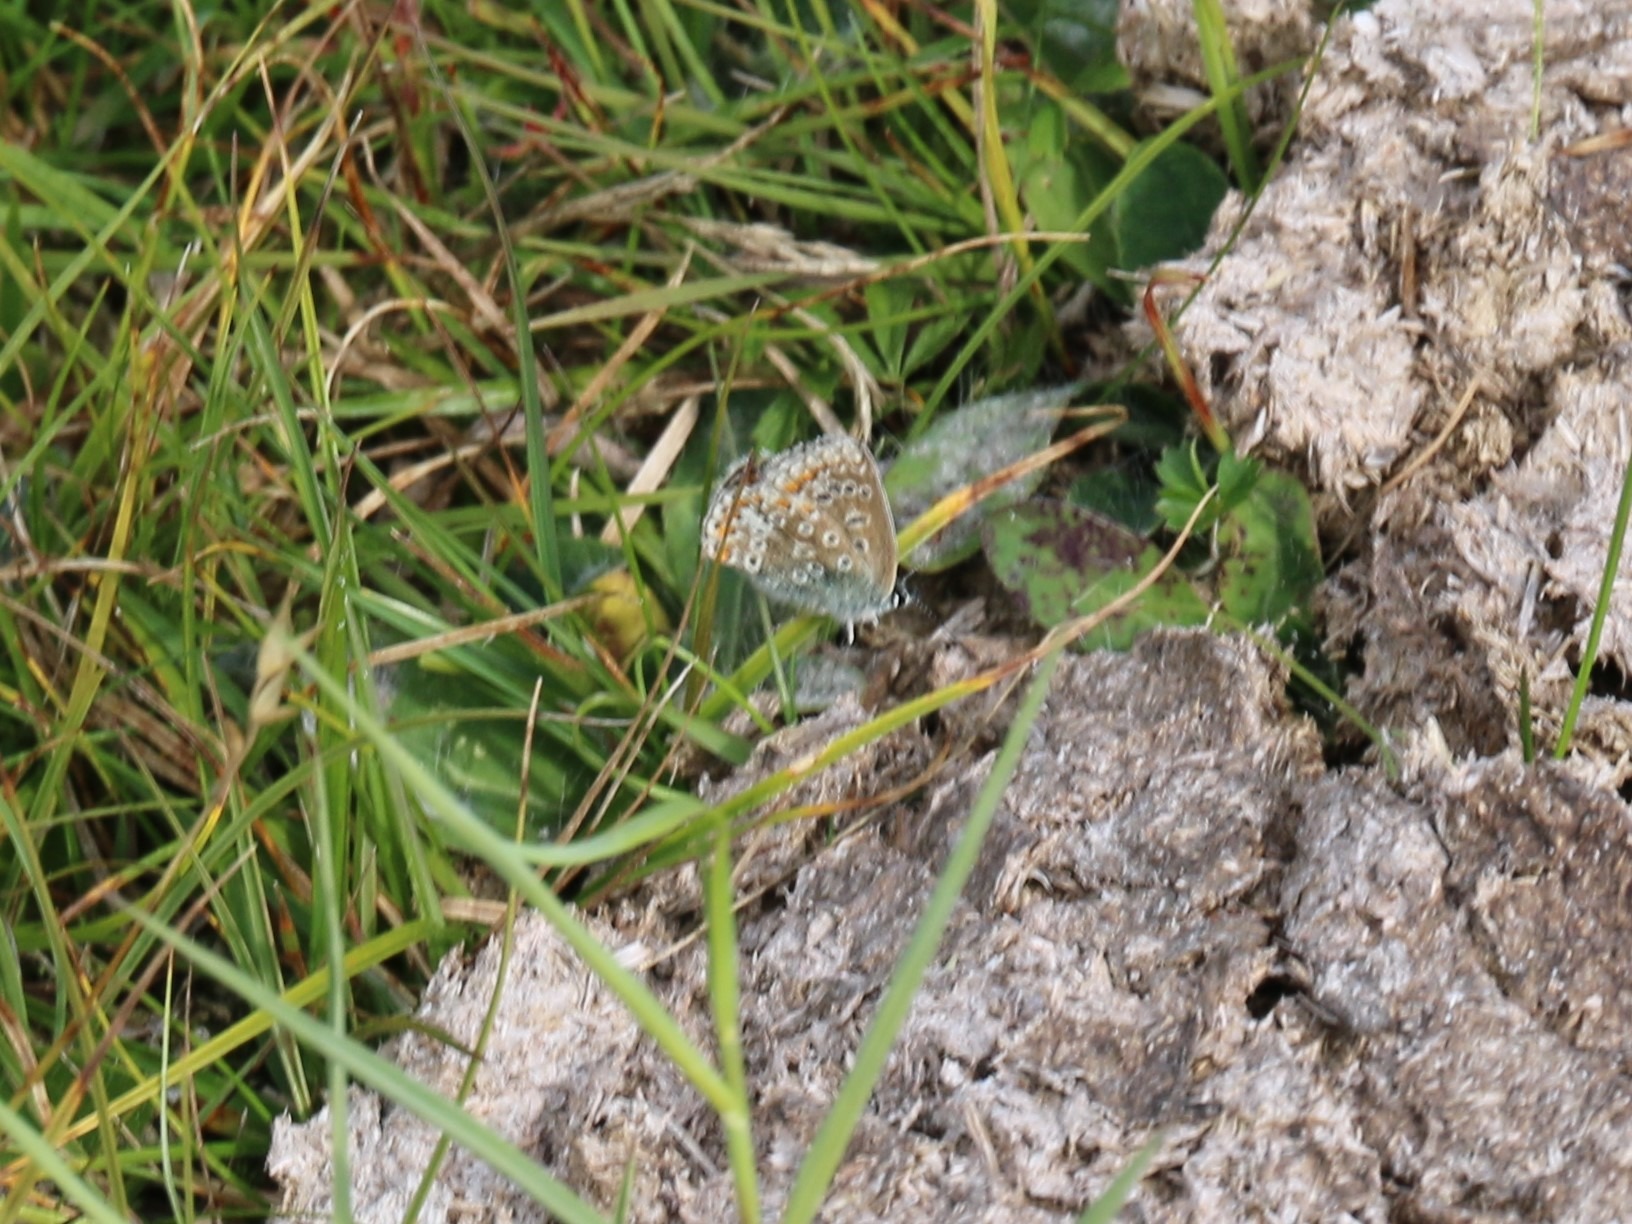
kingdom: Animalia
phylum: Arthropoda
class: Insecta
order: Lepidoptera
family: Lycaenidae
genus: Polyommatus
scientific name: Polyommatus icarus
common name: Almindelig blåfugl
